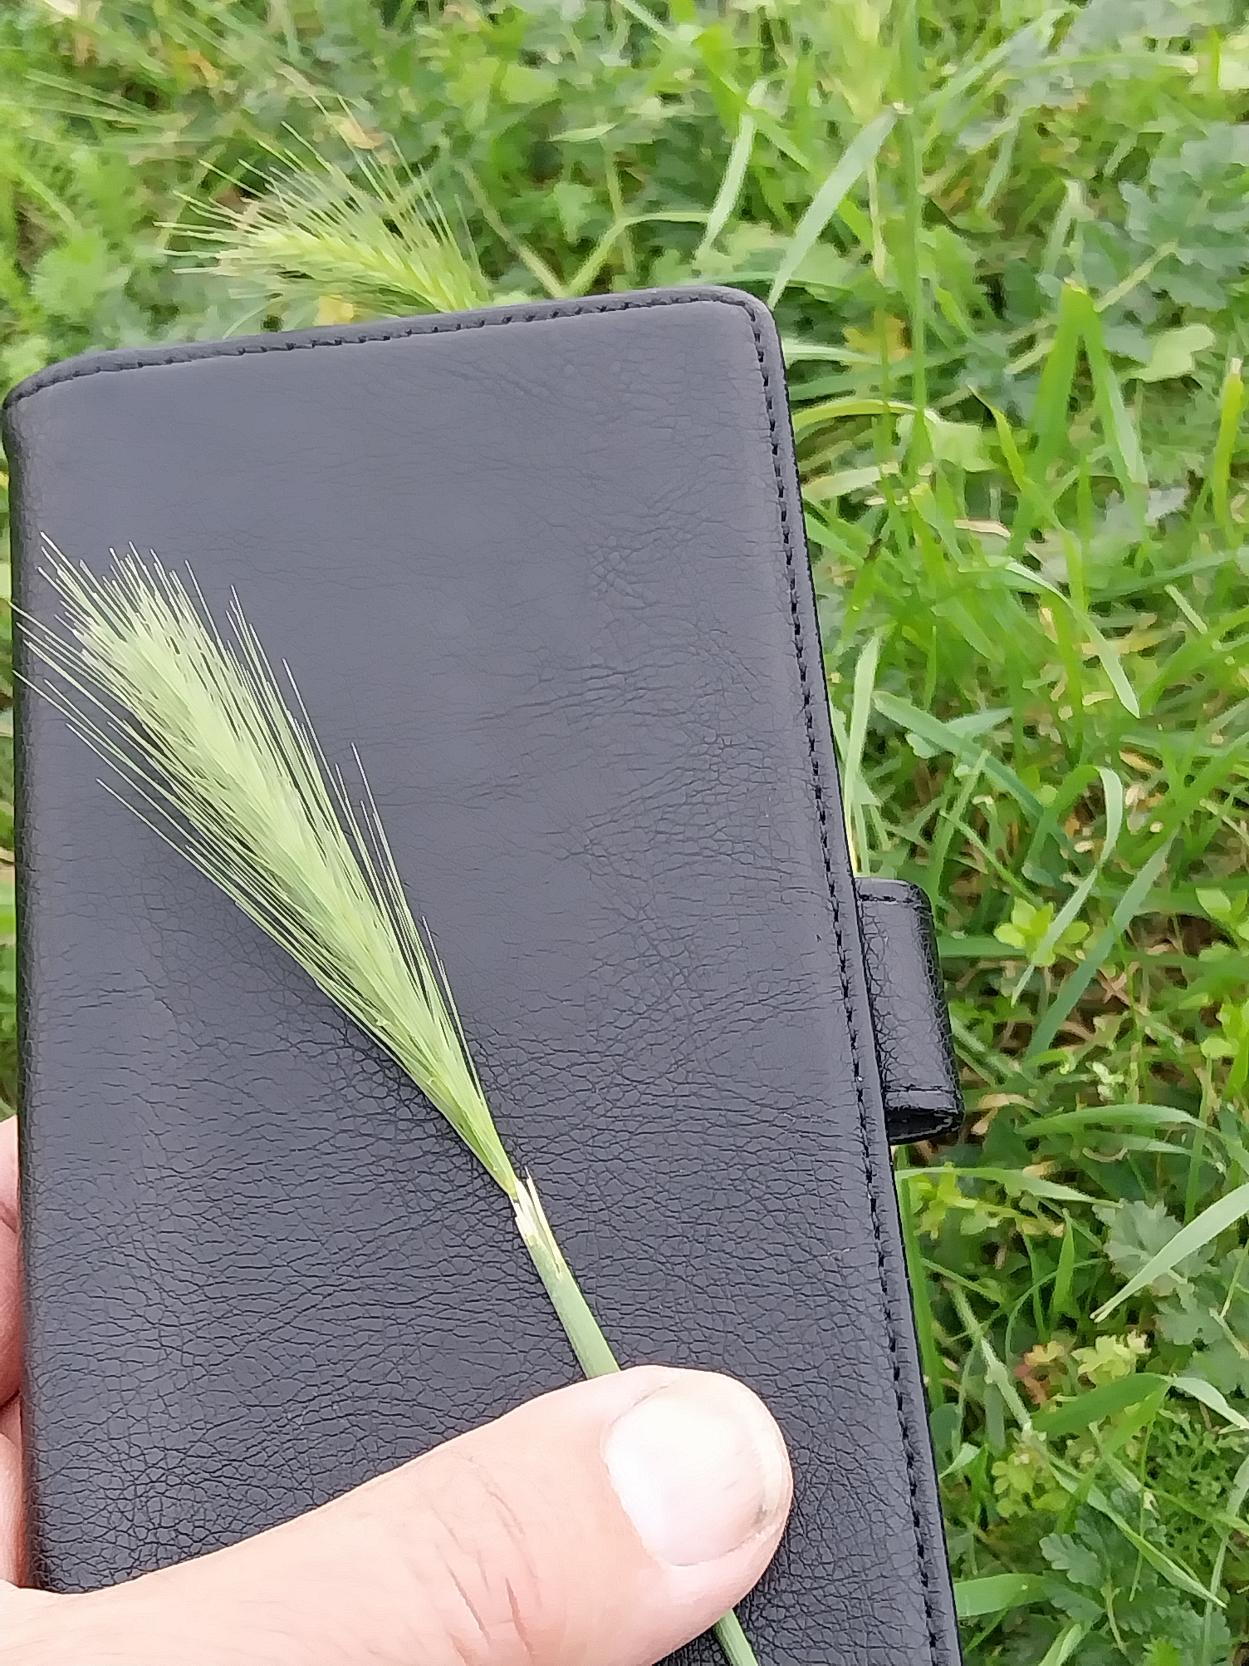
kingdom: Plantae
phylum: Tracheophyta
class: Liliopsida
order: Poales
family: Poaceae
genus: Hordeum
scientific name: Hordeum murinum
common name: Gold byg
